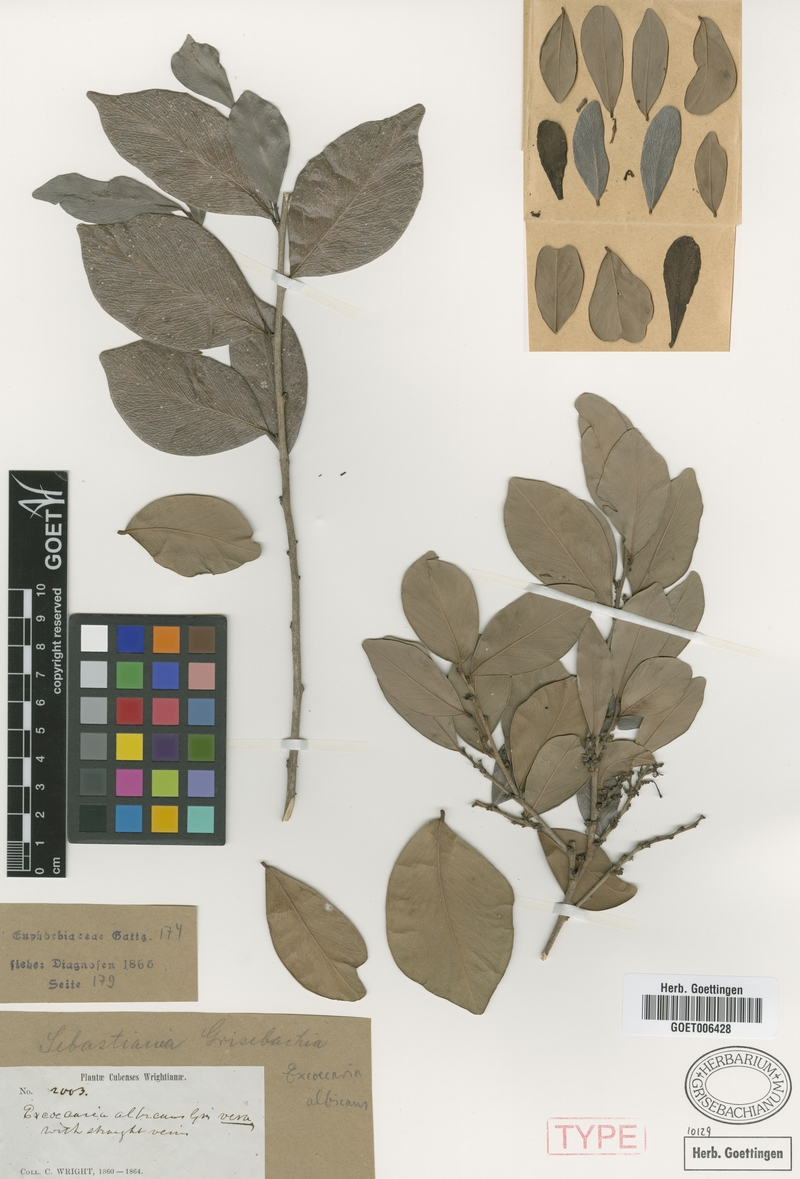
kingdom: Plantae
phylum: Tracheophyta
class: Magnoliopsida
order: Malpighiales
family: Euphorbiaceae
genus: Gymnanthes
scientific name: Gymnanthes albicans
